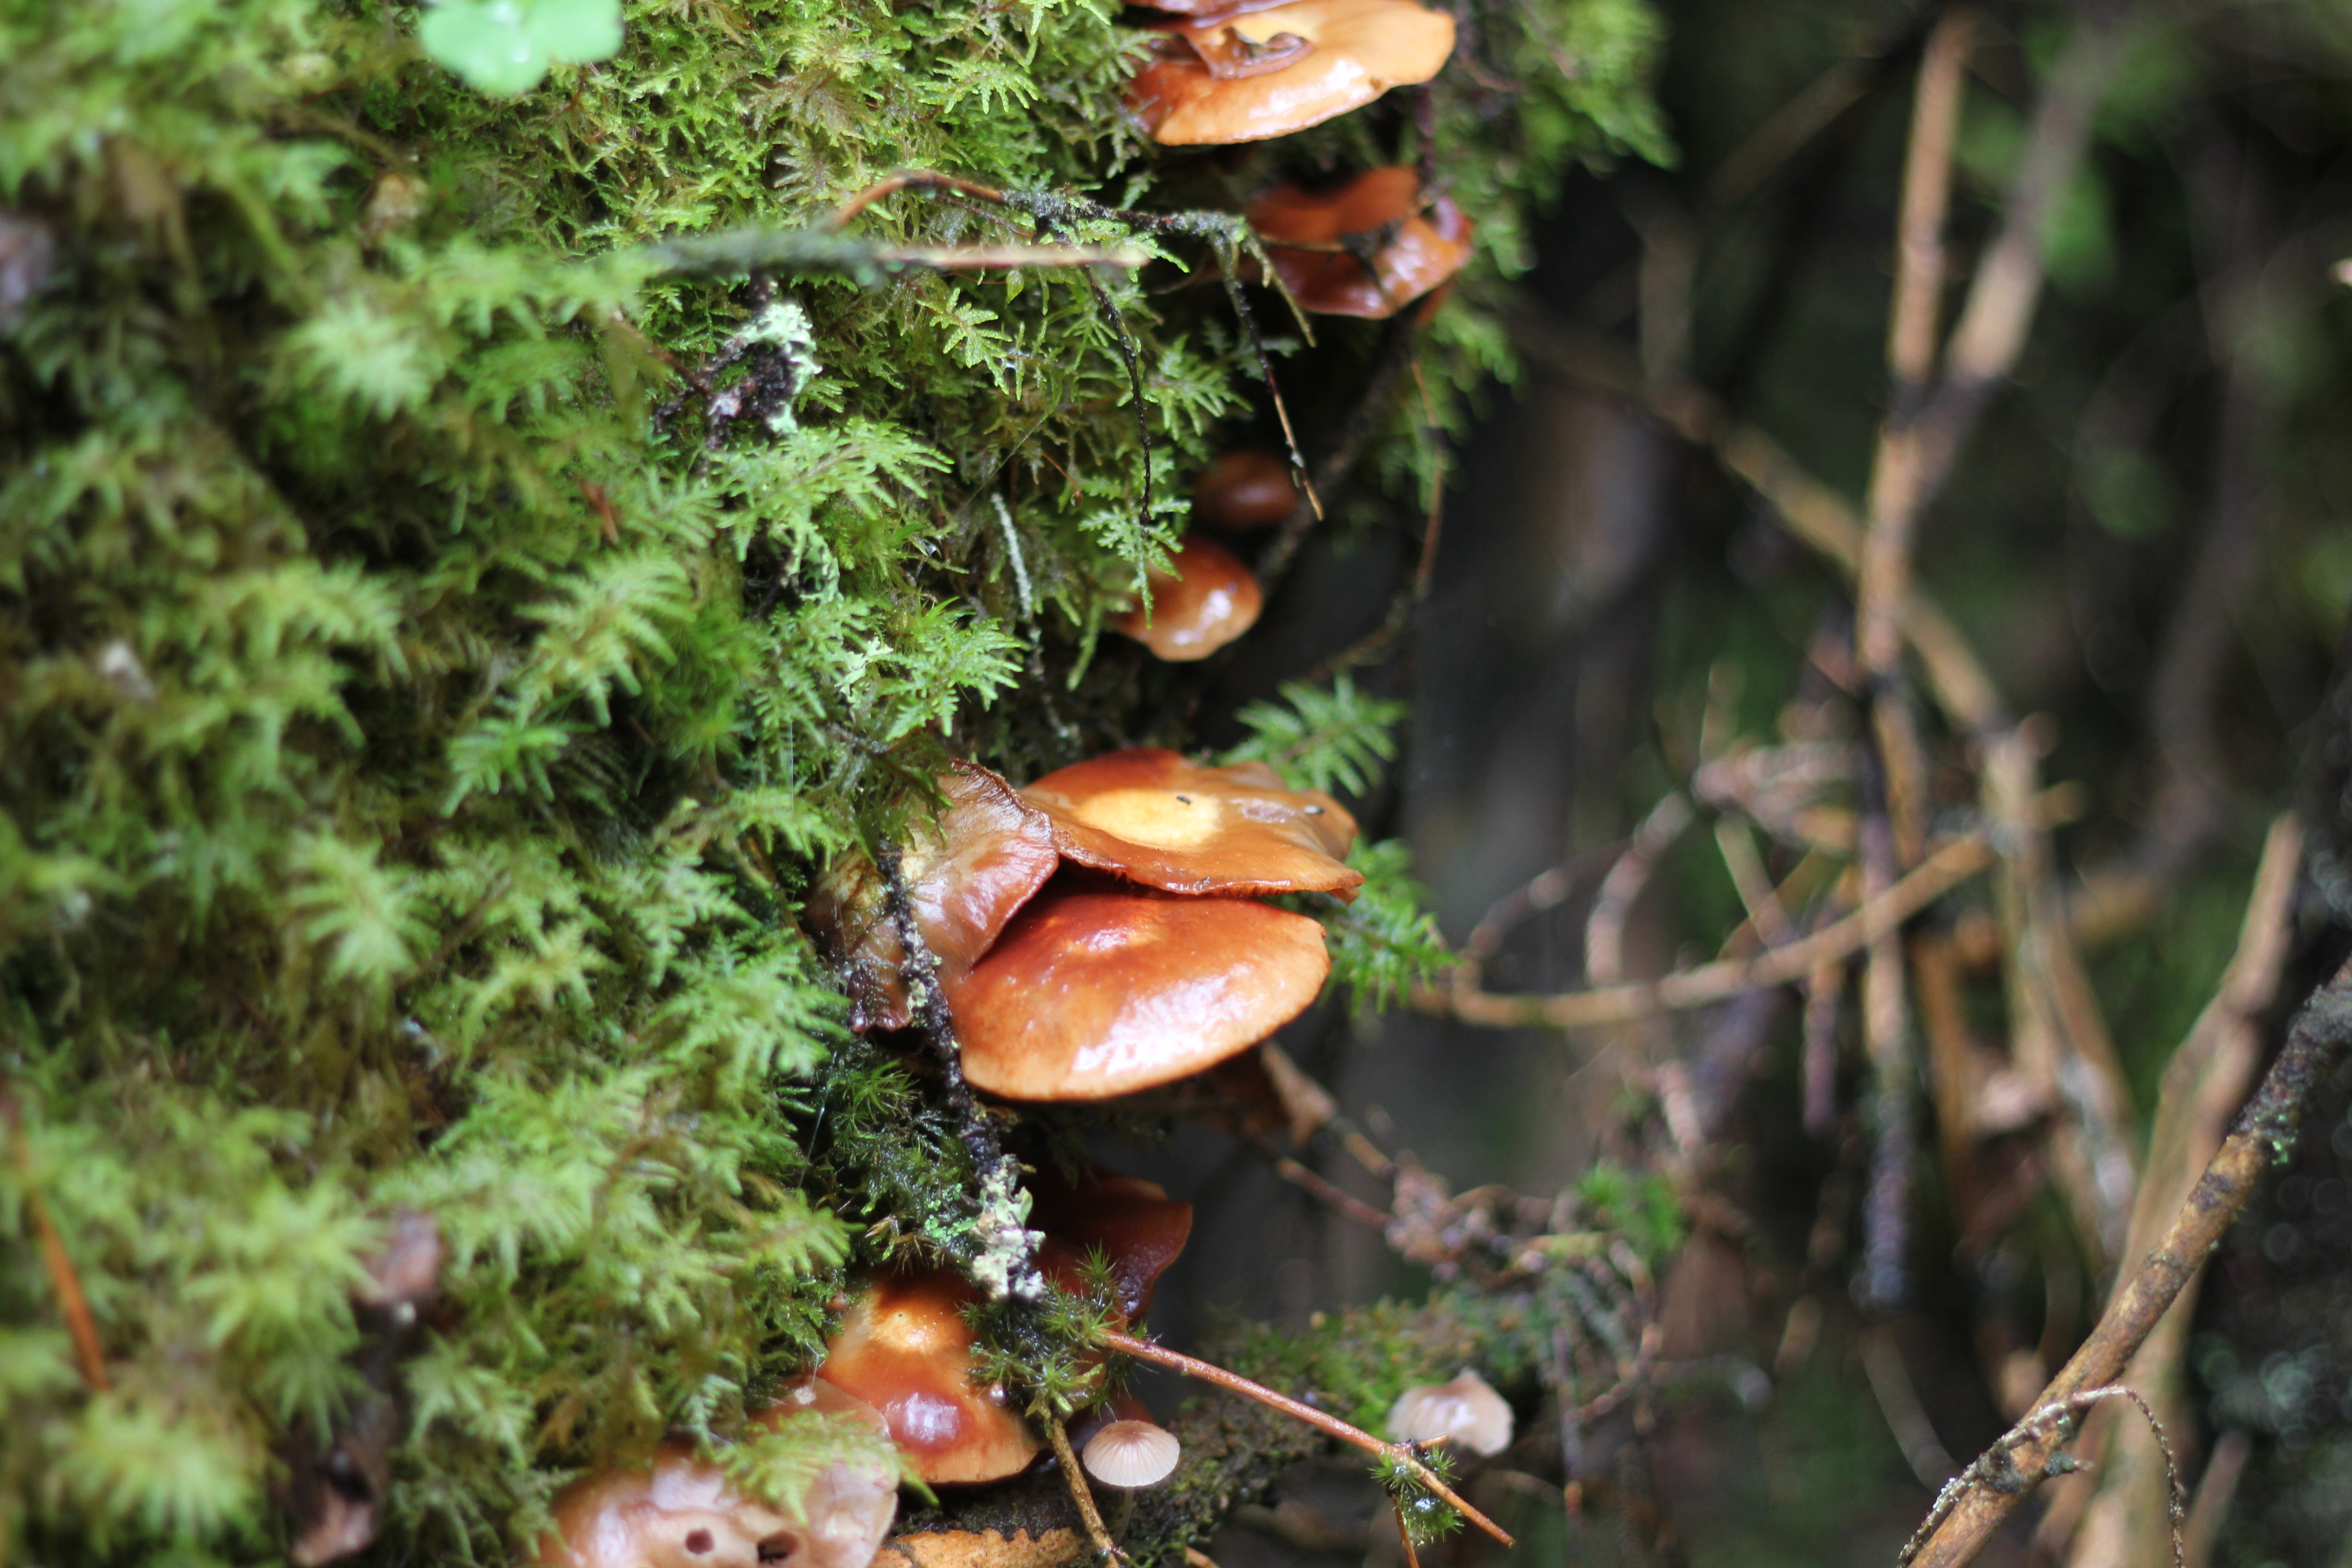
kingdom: Fungi
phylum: Basidiomycota
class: Agaricomycetes
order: Agaricales
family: Strophariaceae
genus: Kuehneromyces
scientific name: Kuehneromyces mutabilis
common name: Sheathed woodtuft
